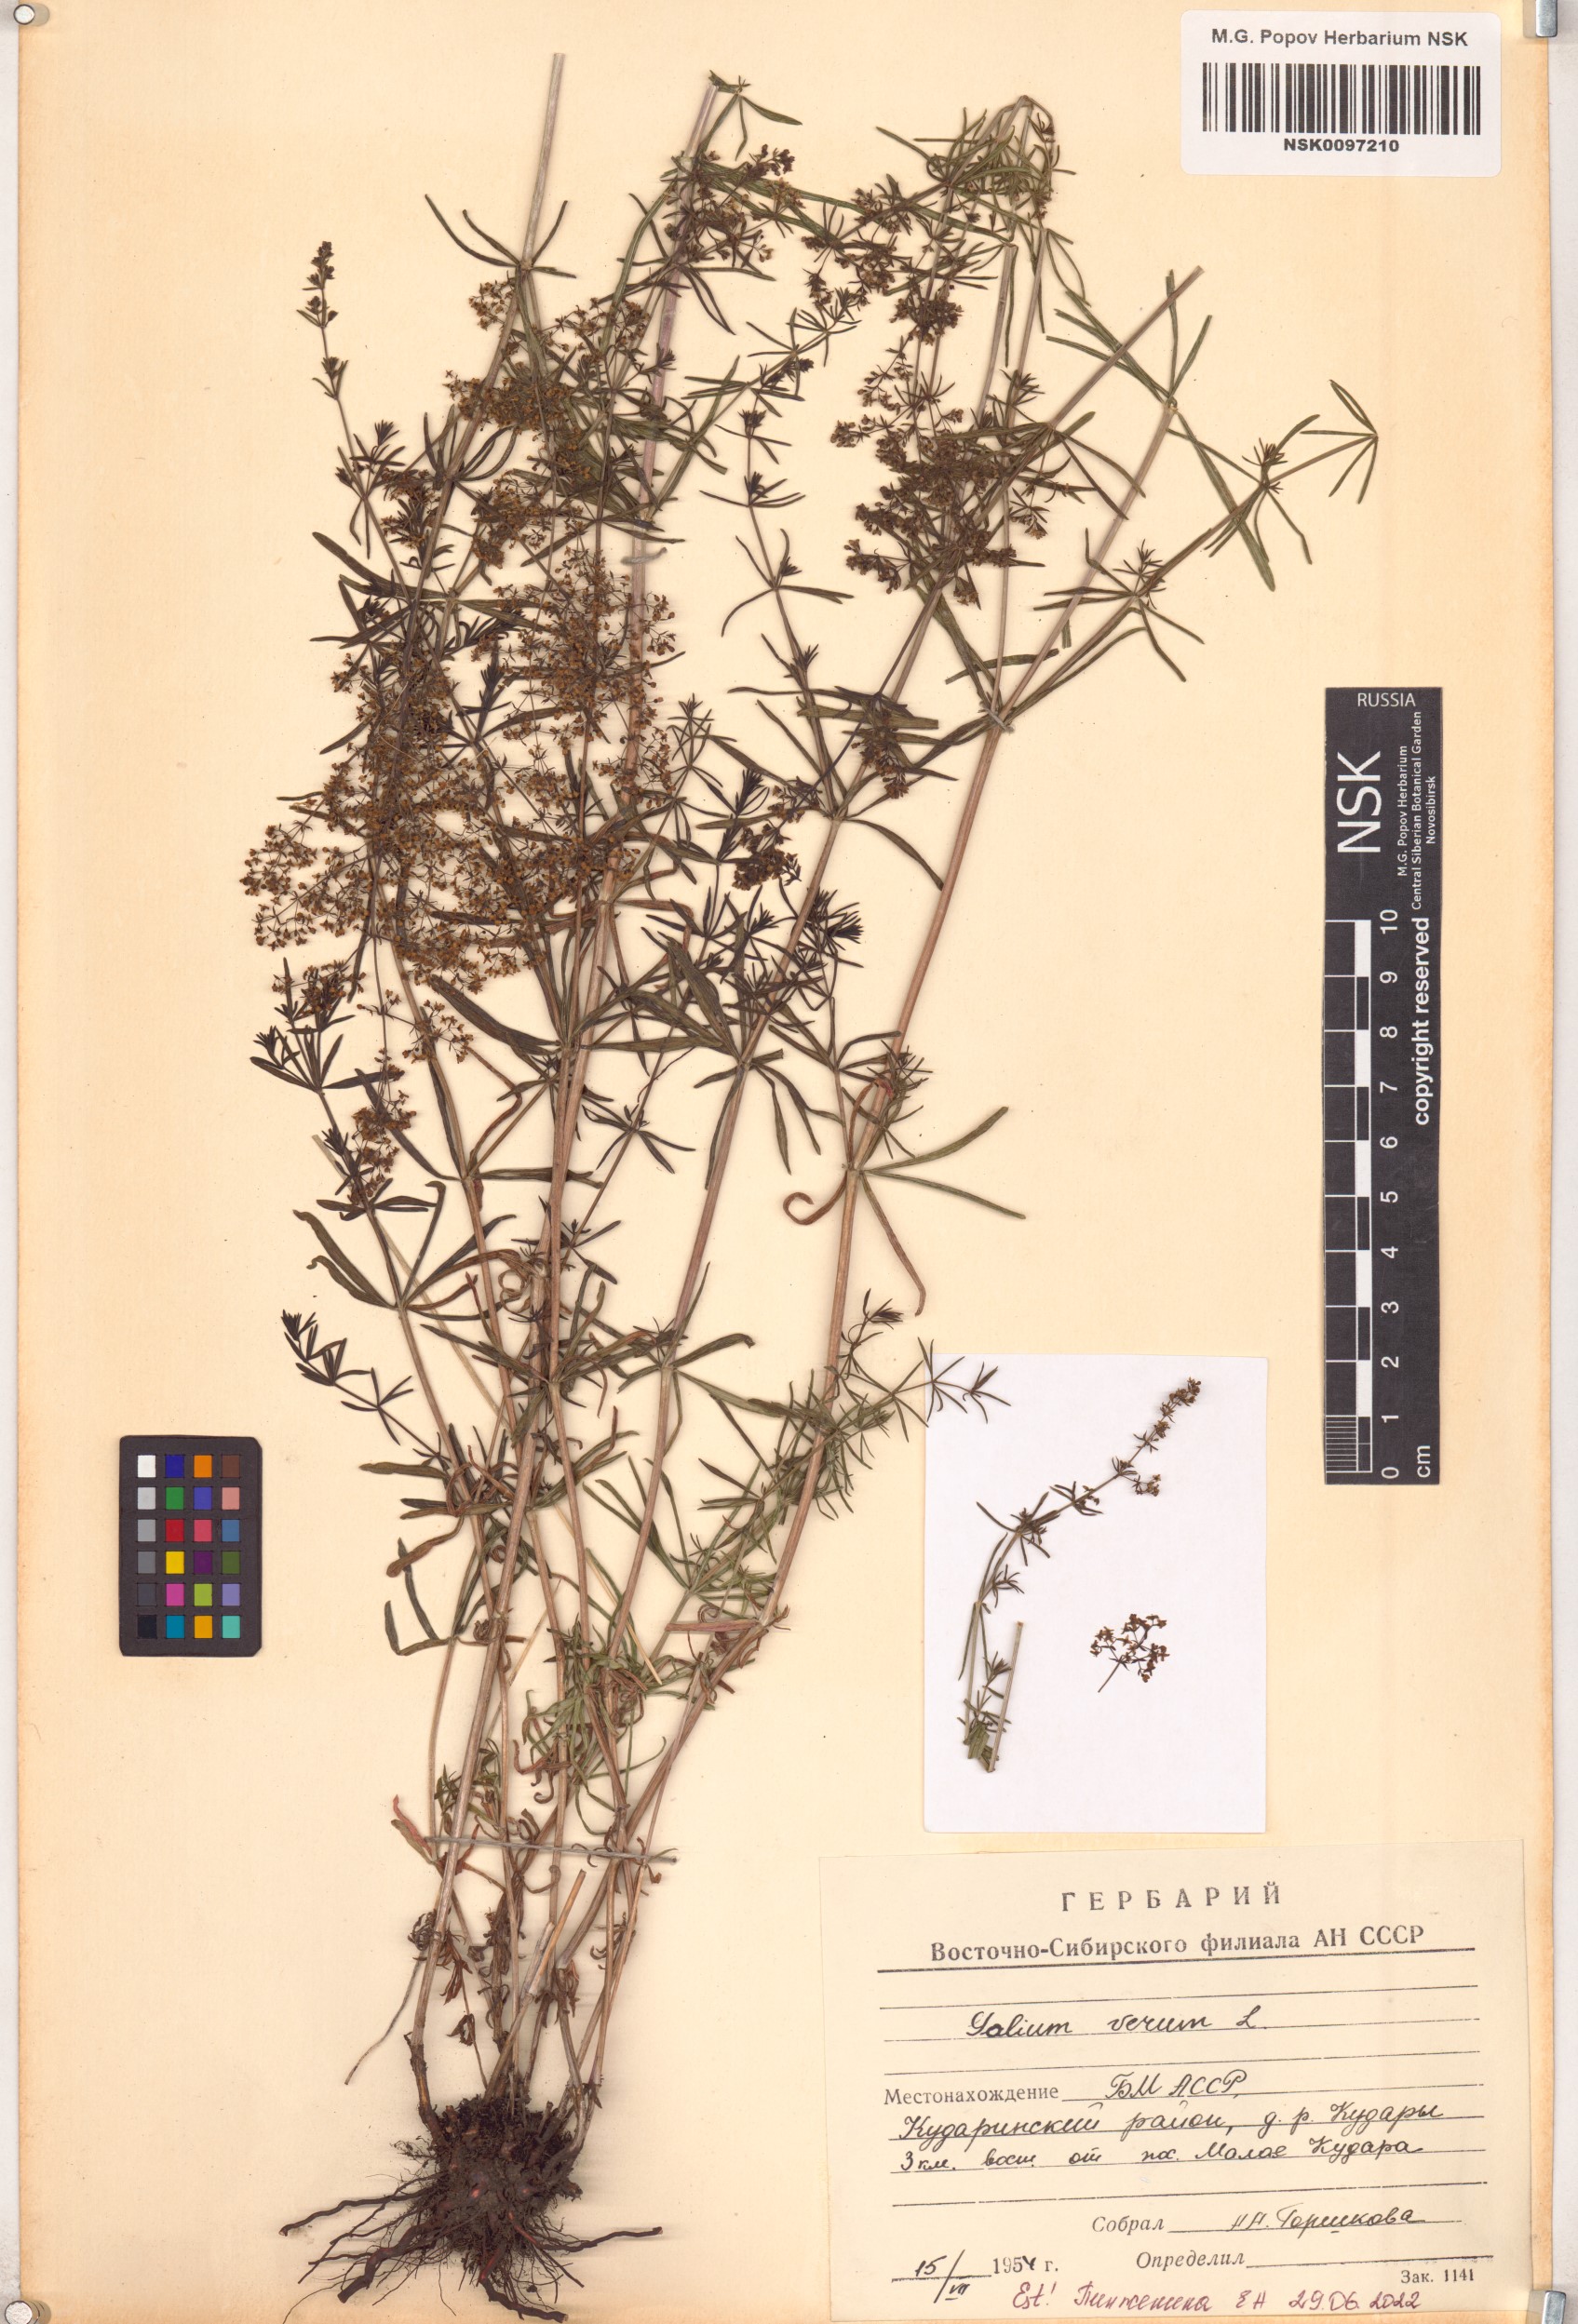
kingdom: Plantae
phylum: Tracheophyta
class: Magnoliopsida
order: Gentianales
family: Rubiaceae
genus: Galium
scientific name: Galium verum
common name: Lady's bedstraw
